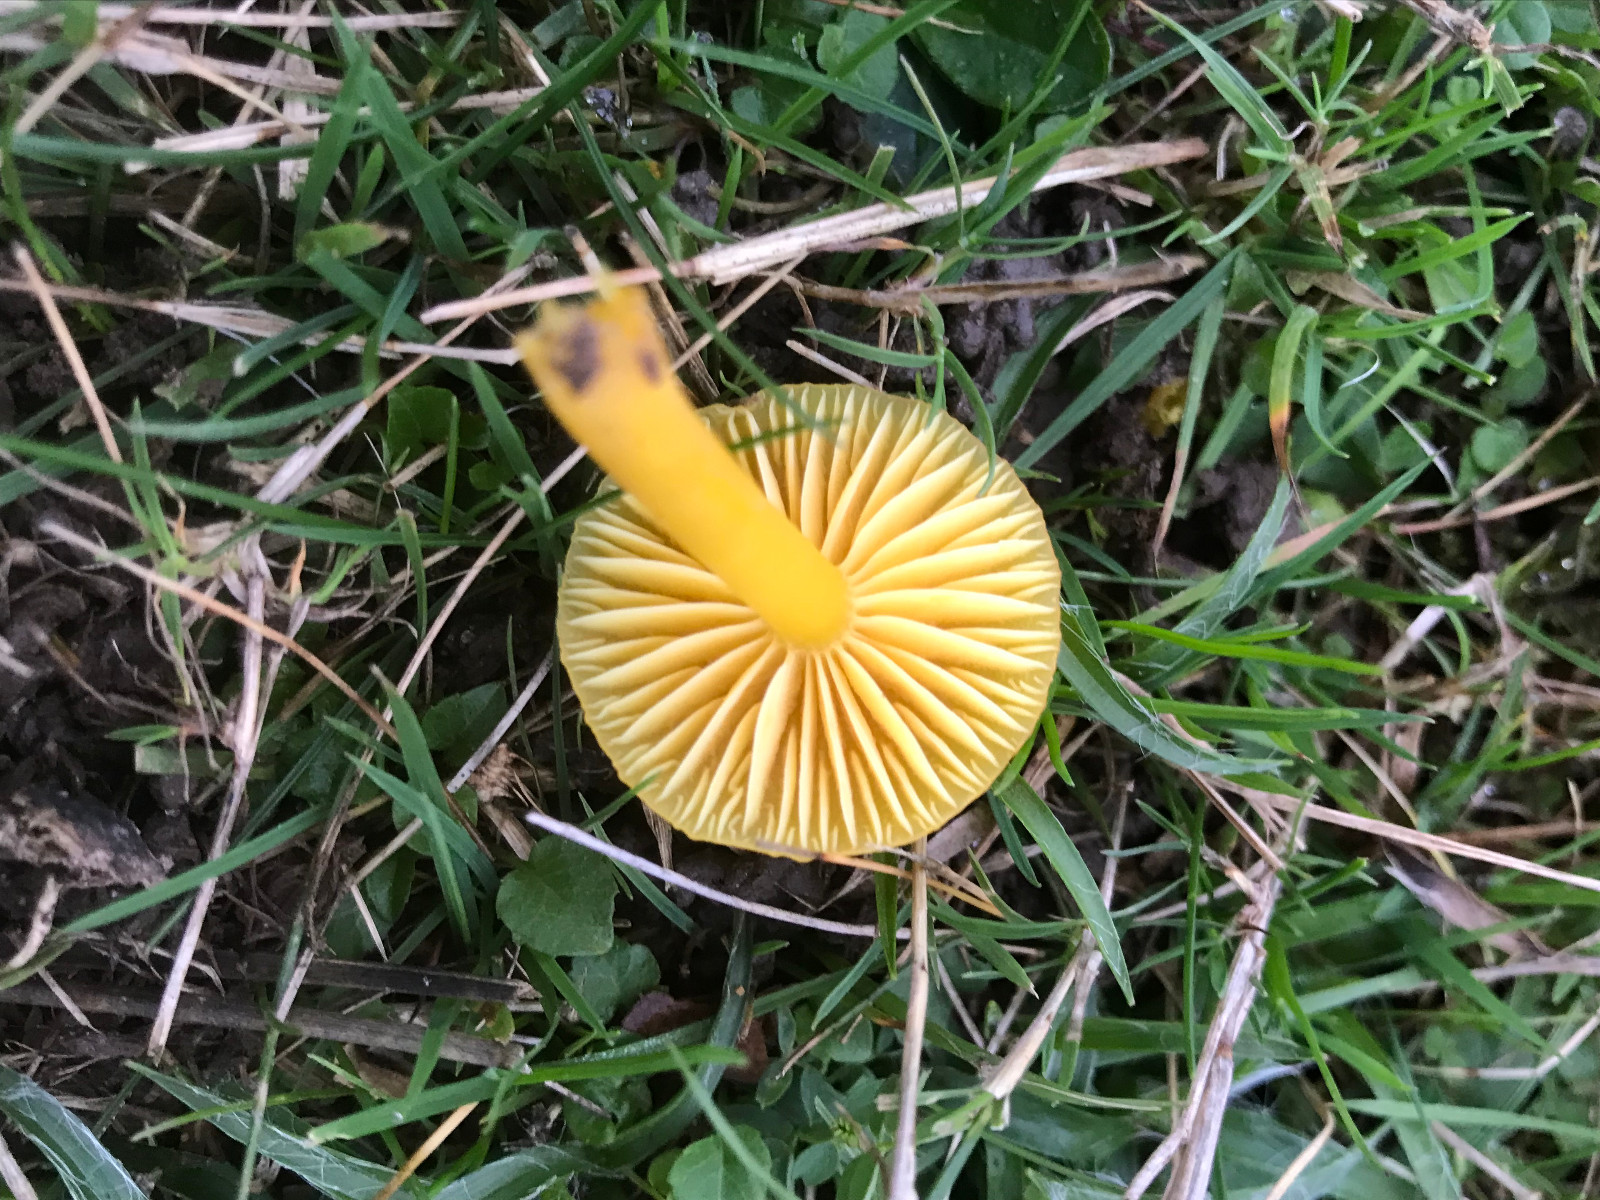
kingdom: Fungi
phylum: Basidiomycota
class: Agaricomycetes
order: Agaricales
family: Hygrophoraceae
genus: Hygrocybe
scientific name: Hygrocybe chlorophana
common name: gul vokshat
